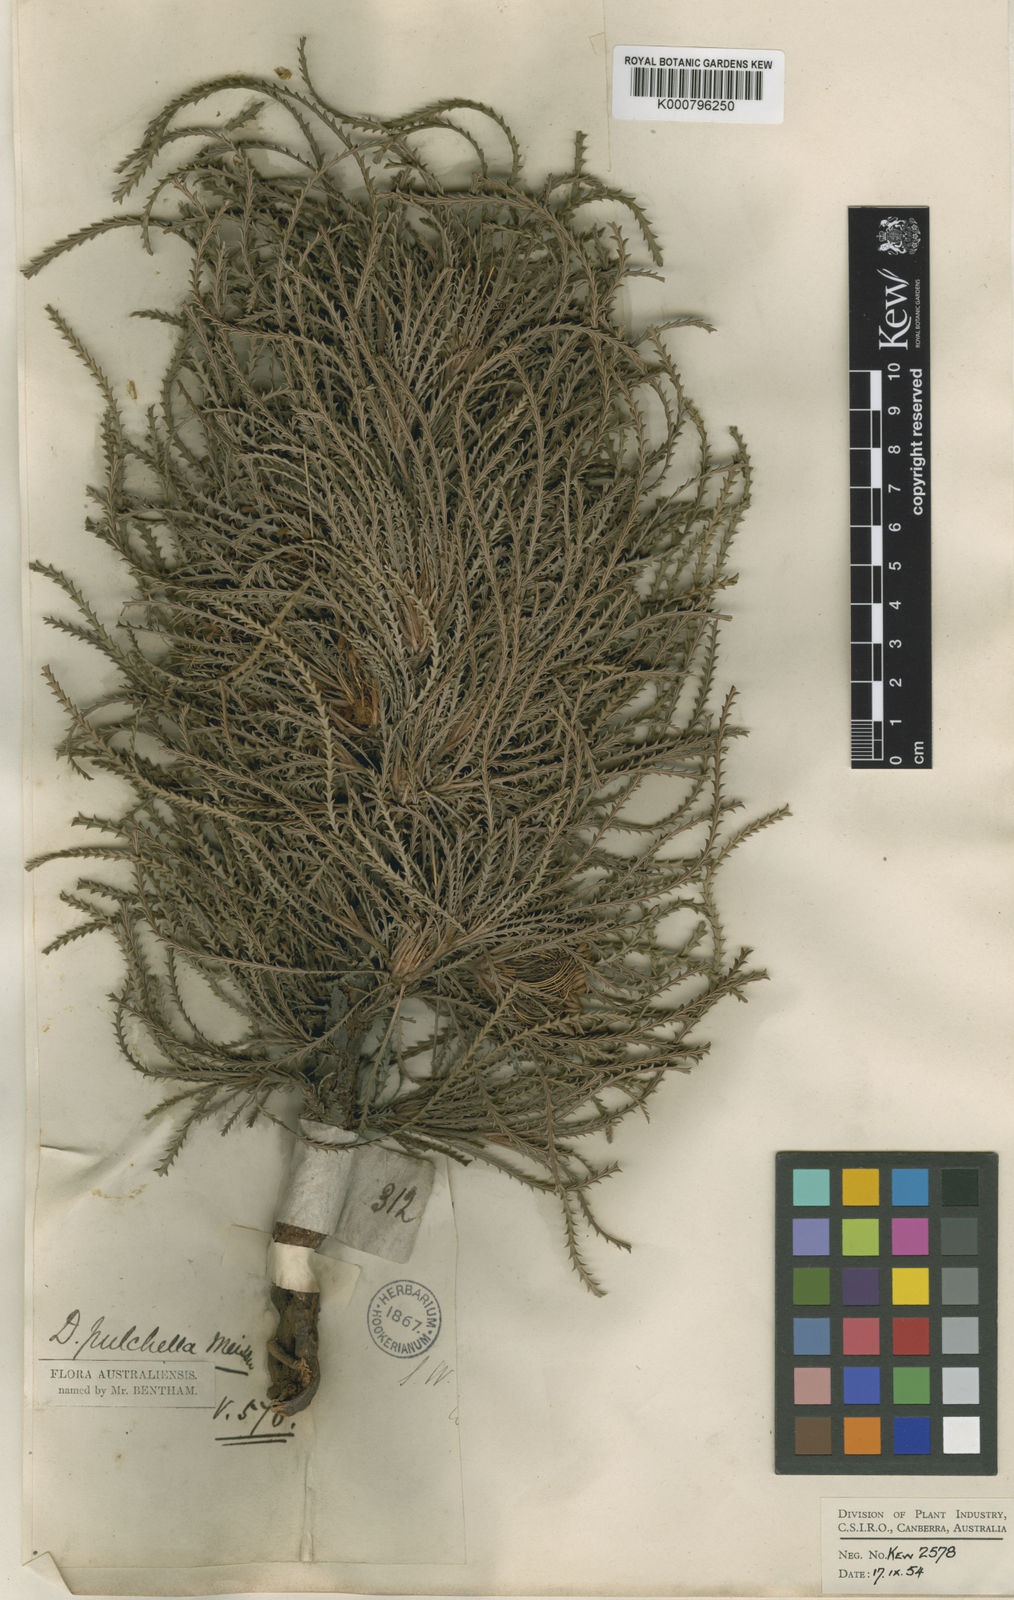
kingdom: Plantae
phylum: Tracheophyta
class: Magnoliopsida
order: Proteales
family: Proteaceae
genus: Banksia
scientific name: Banksia bella
